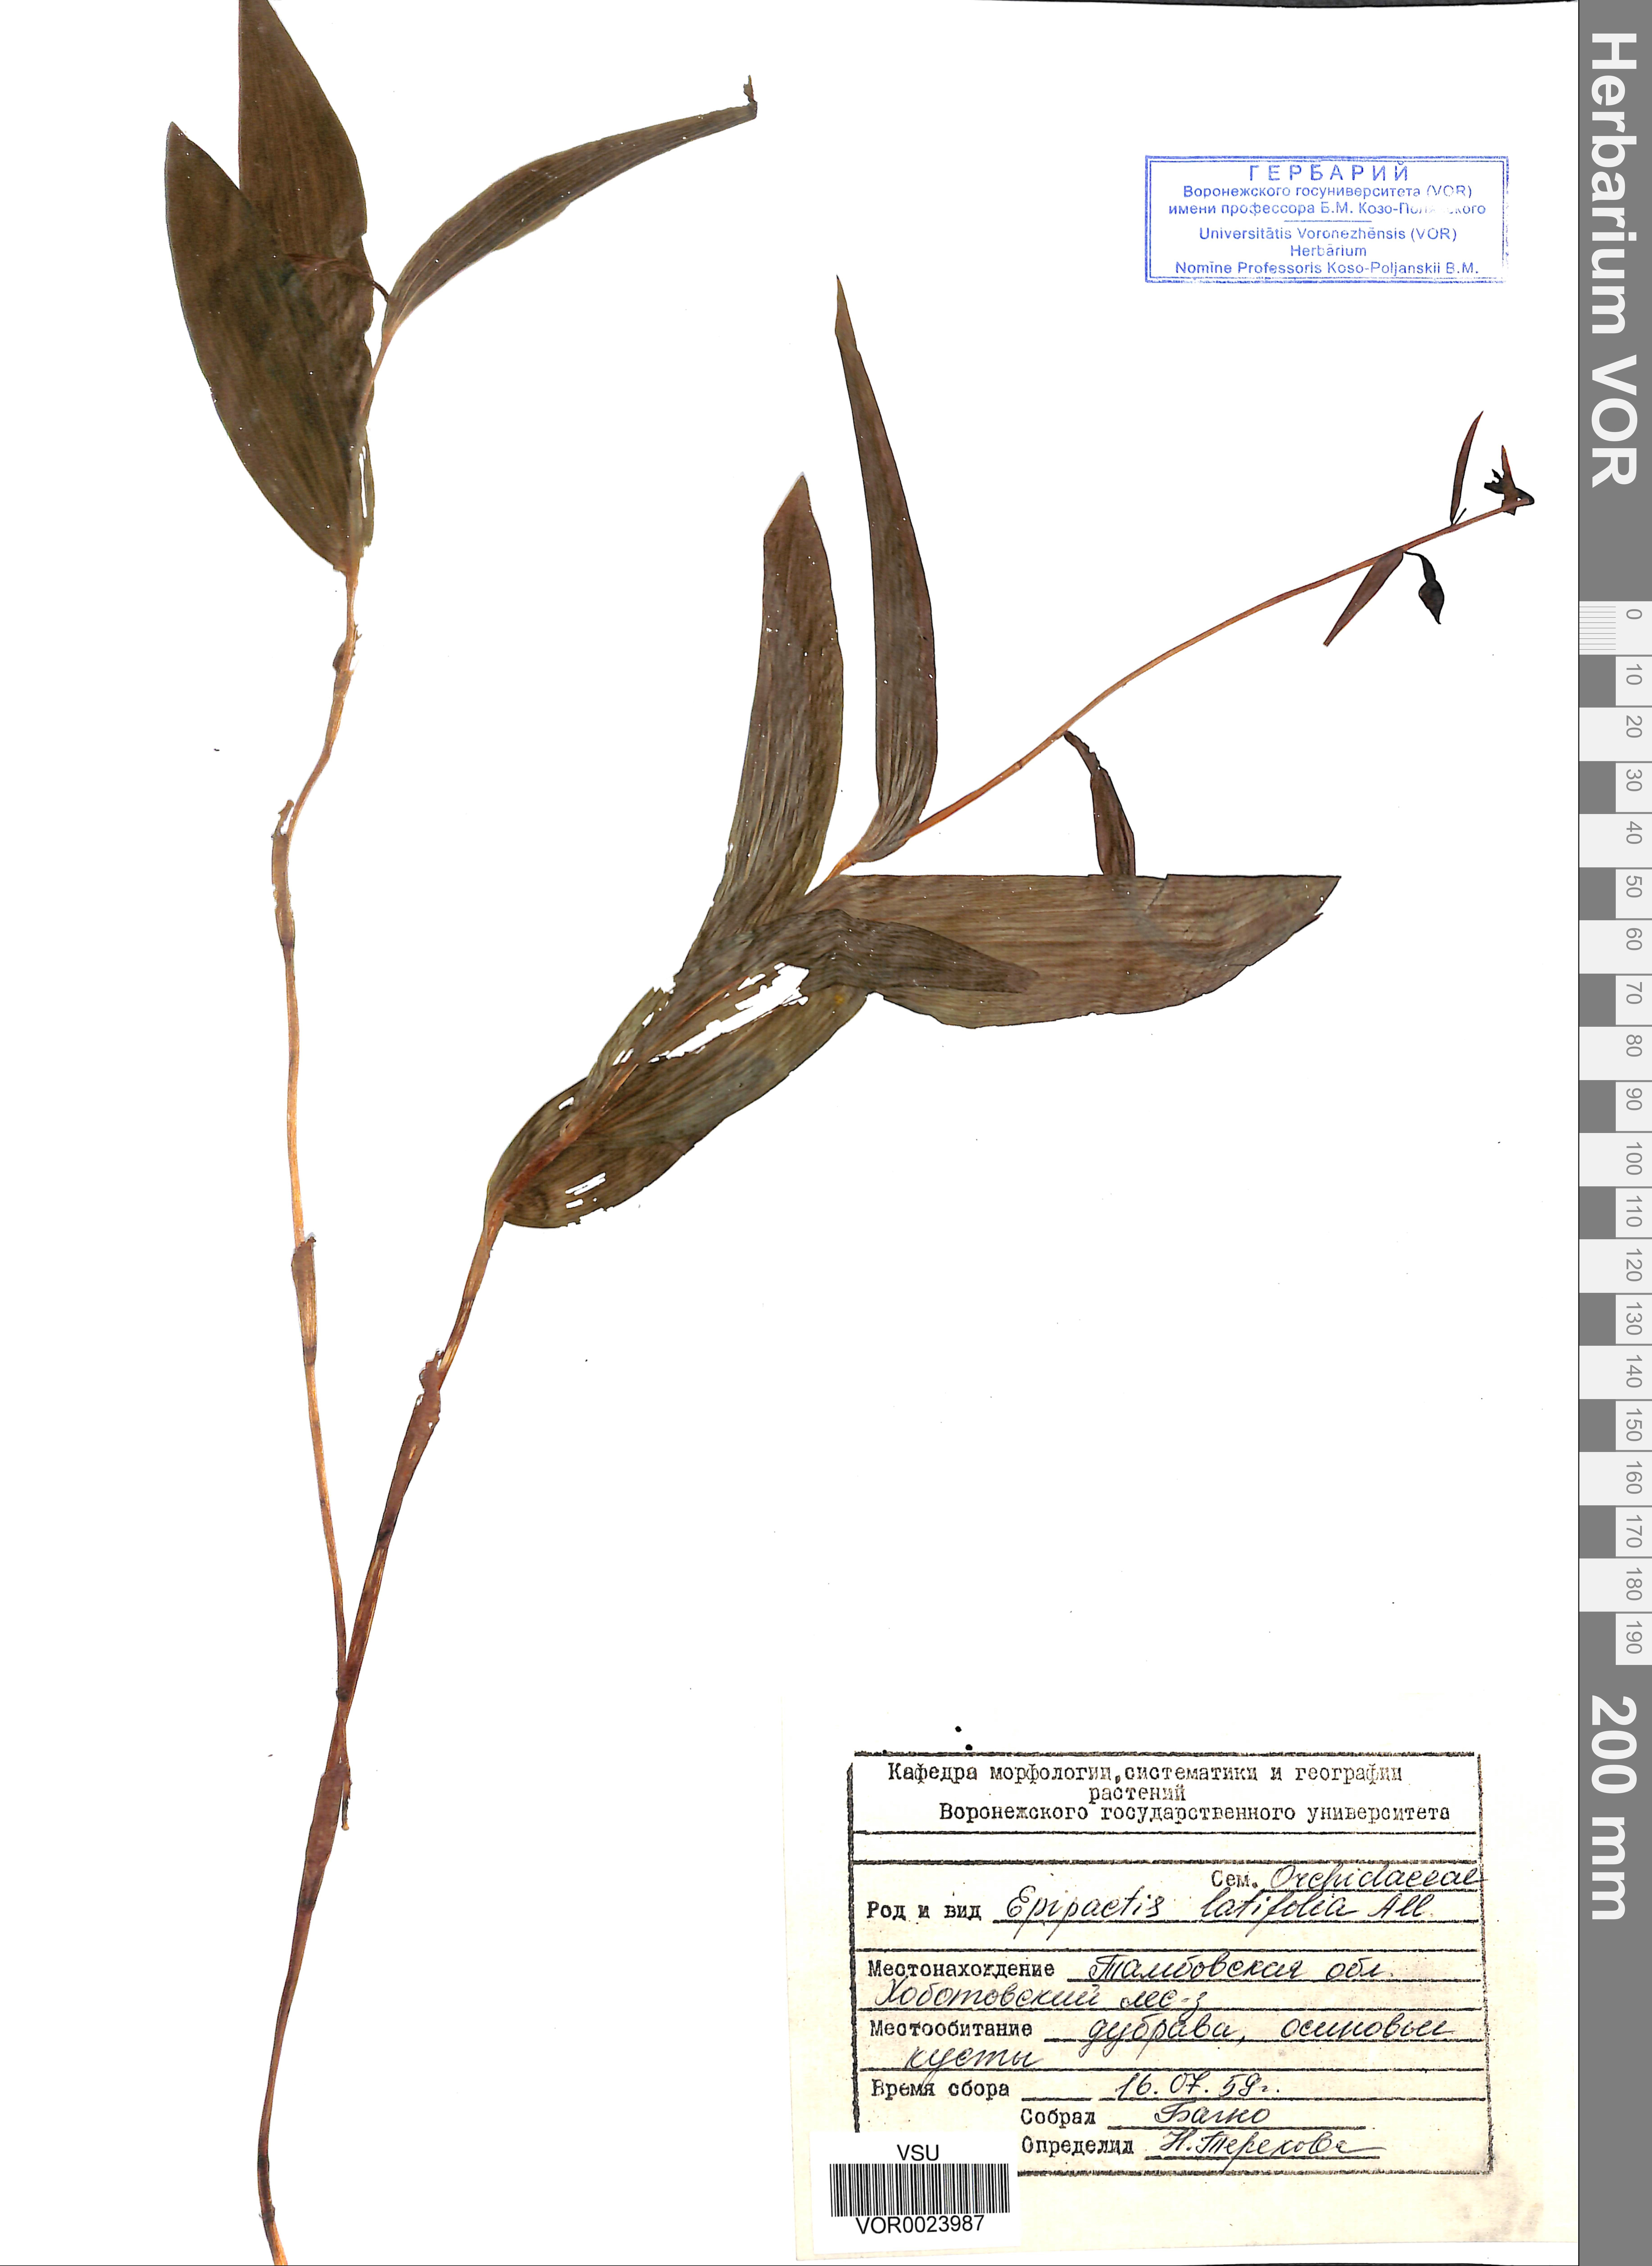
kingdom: Plantae
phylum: Tracheophyta
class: Liliopsida
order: Asparagales
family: Orchidaceae
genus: Epipactis
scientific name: Epipactis helleborine
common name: Broad-leaved helleborine
